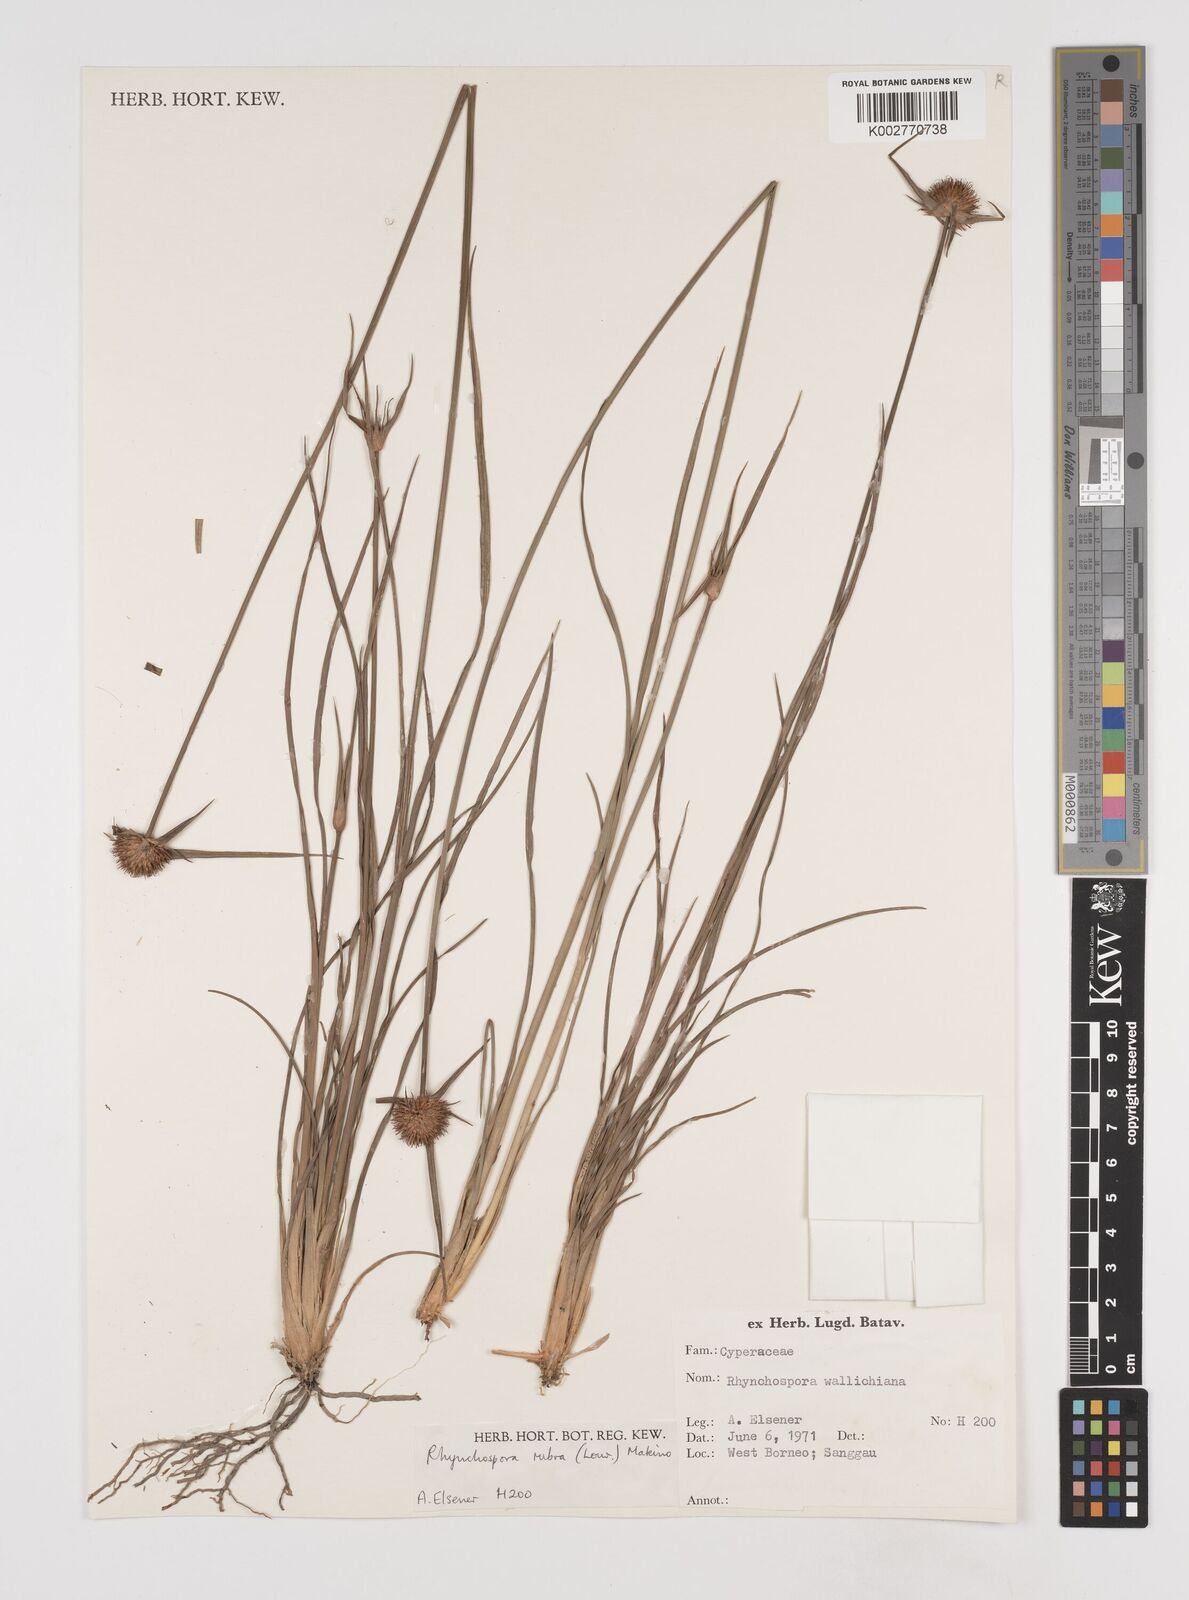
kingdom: Plantae
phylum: Tracheophyta
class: Liliopsida
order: Poales
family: Cyperaceae
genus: Rhynchospora
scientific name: Rhynchospora rubra
